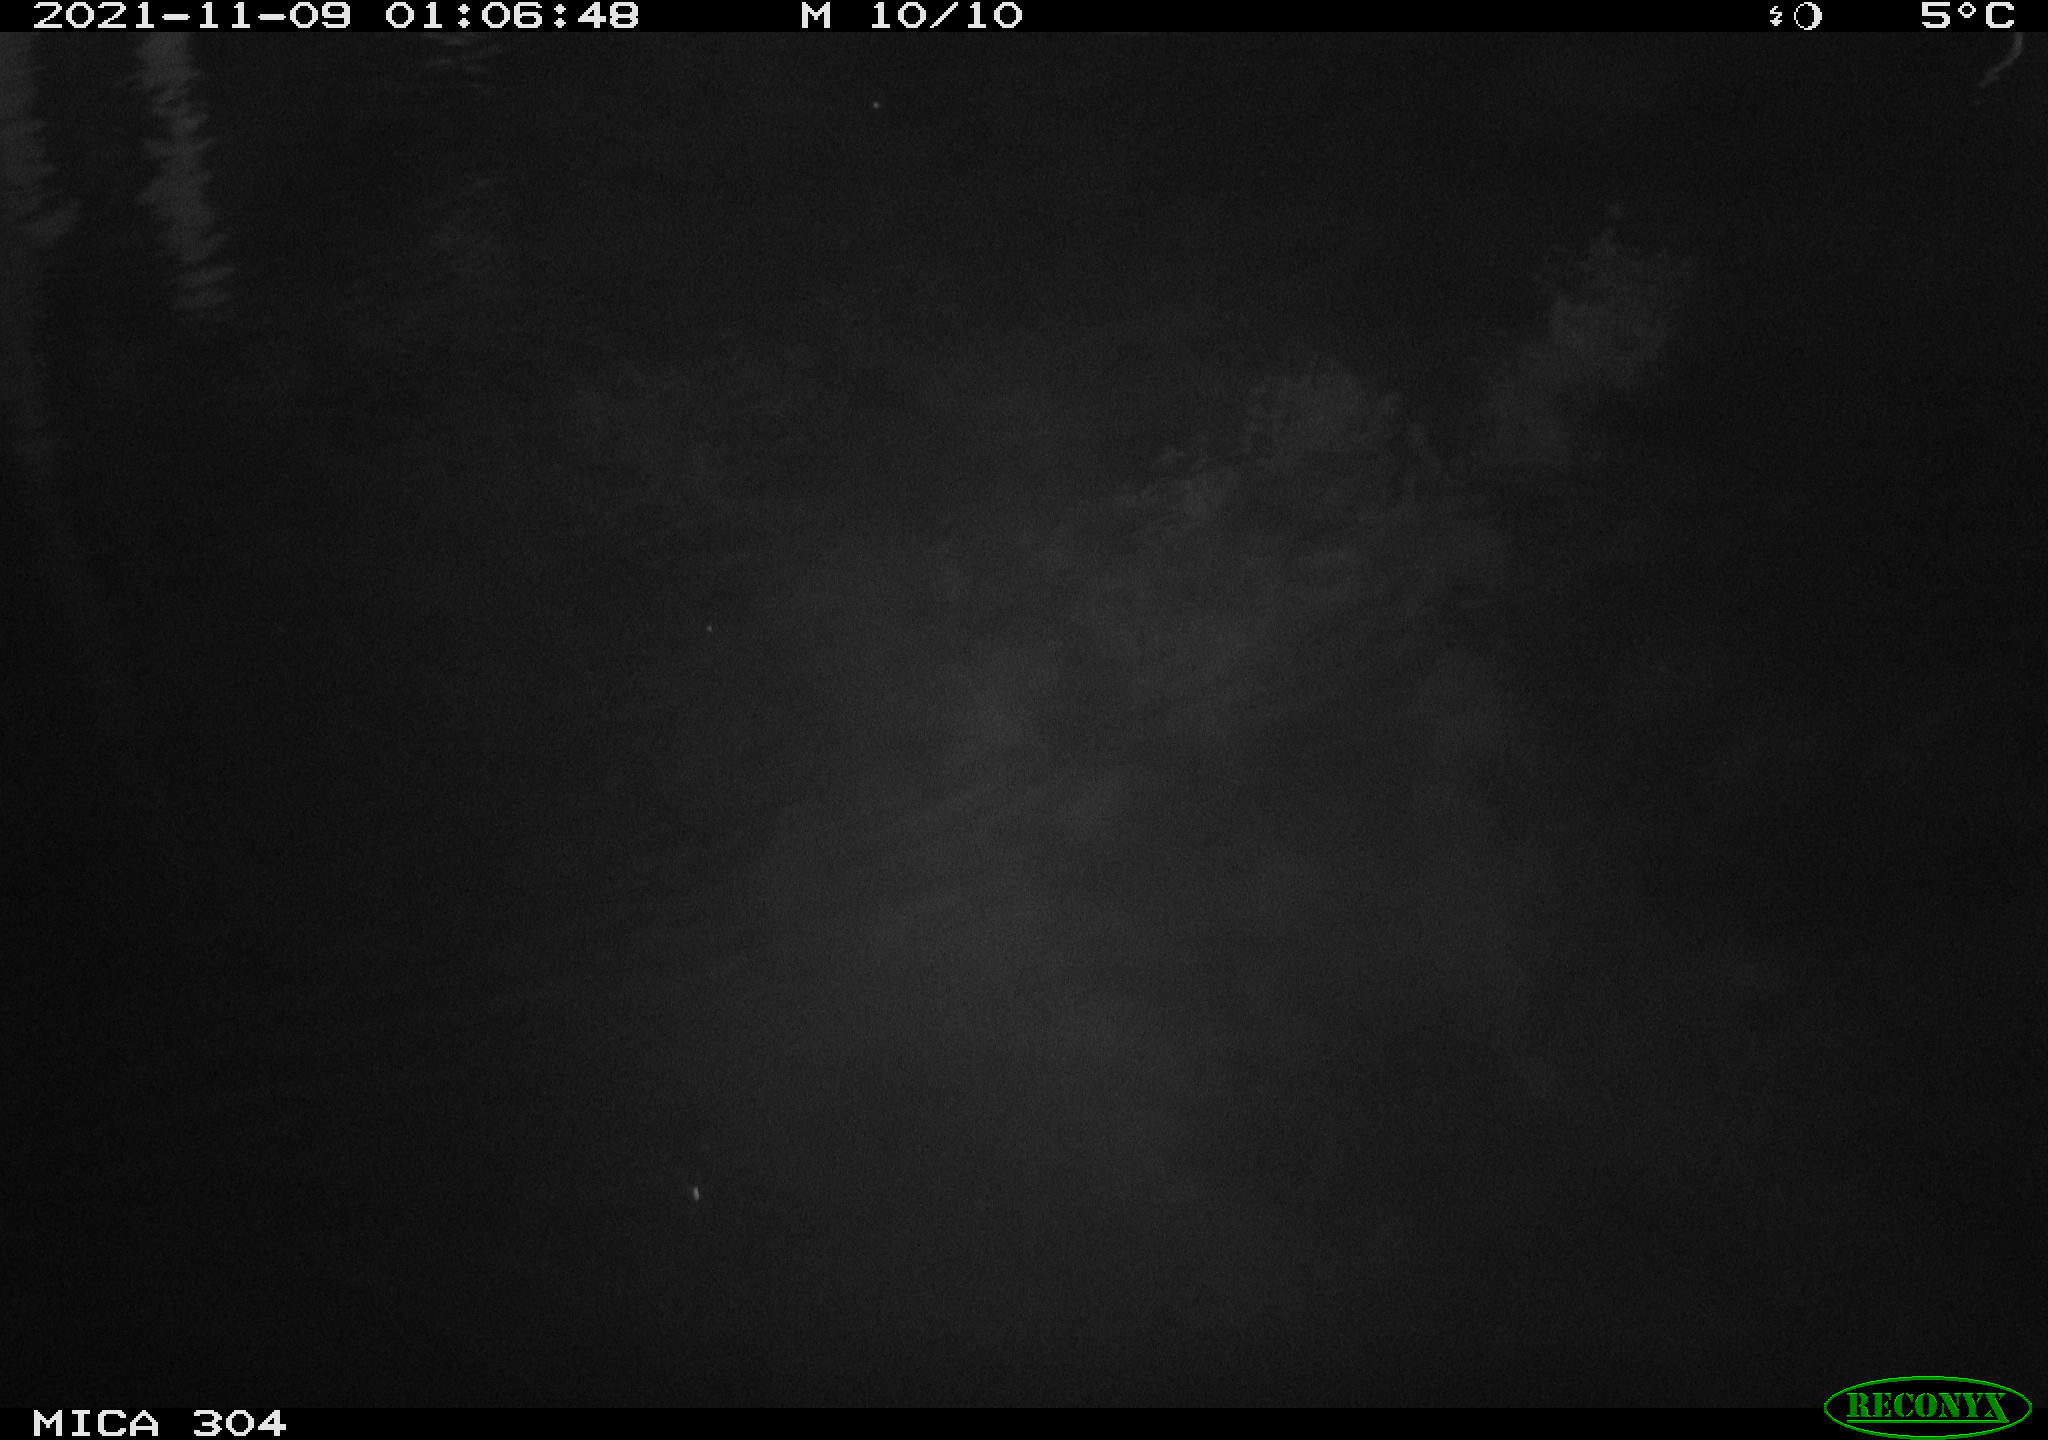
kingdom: Animalia
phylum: Chordata
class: Mammalia
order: Rodentia
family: Muridae
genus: Rattus
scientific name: Rattus norvegicus
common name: Brown rat
